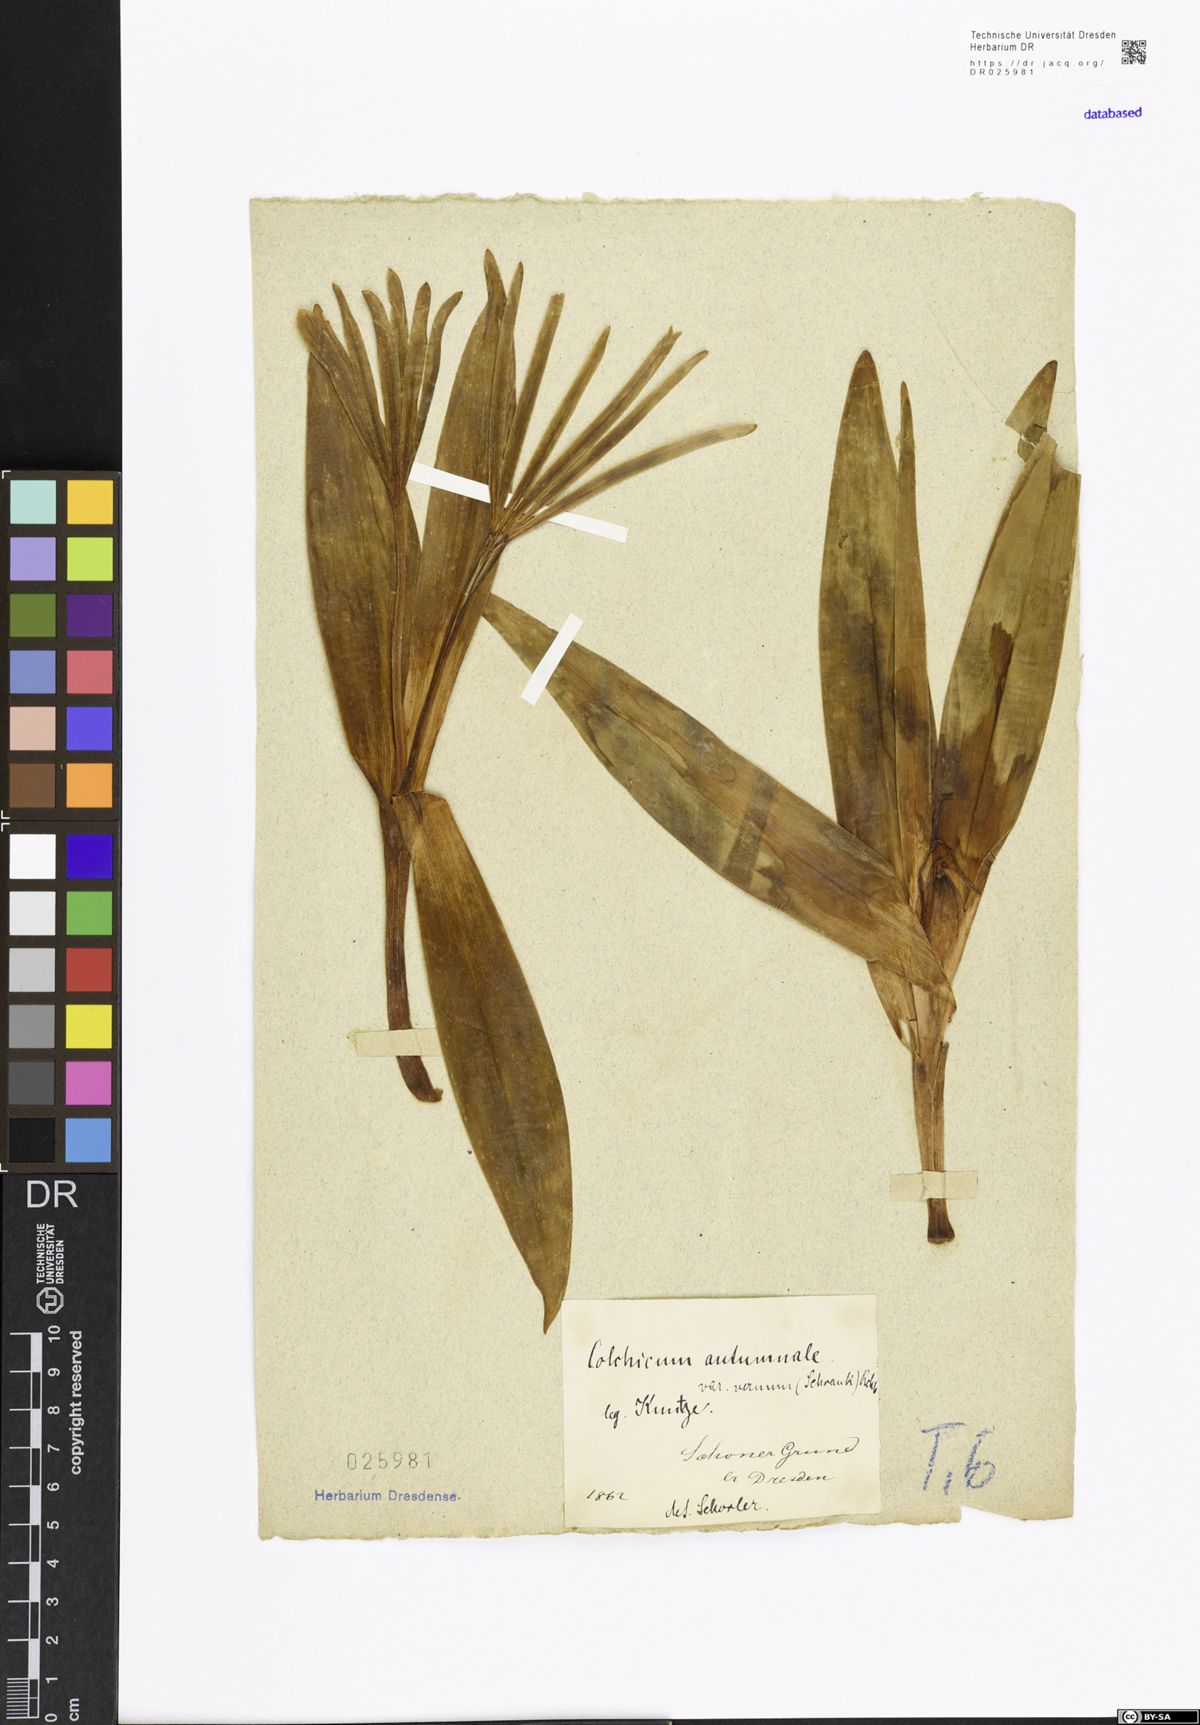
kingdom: Plantae
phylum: Tracheophyta
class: Liliopsida
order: Liliales
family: Colchicaceae
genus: Colchicum
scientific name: Colchicum autumnale
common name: Autumn crocus
